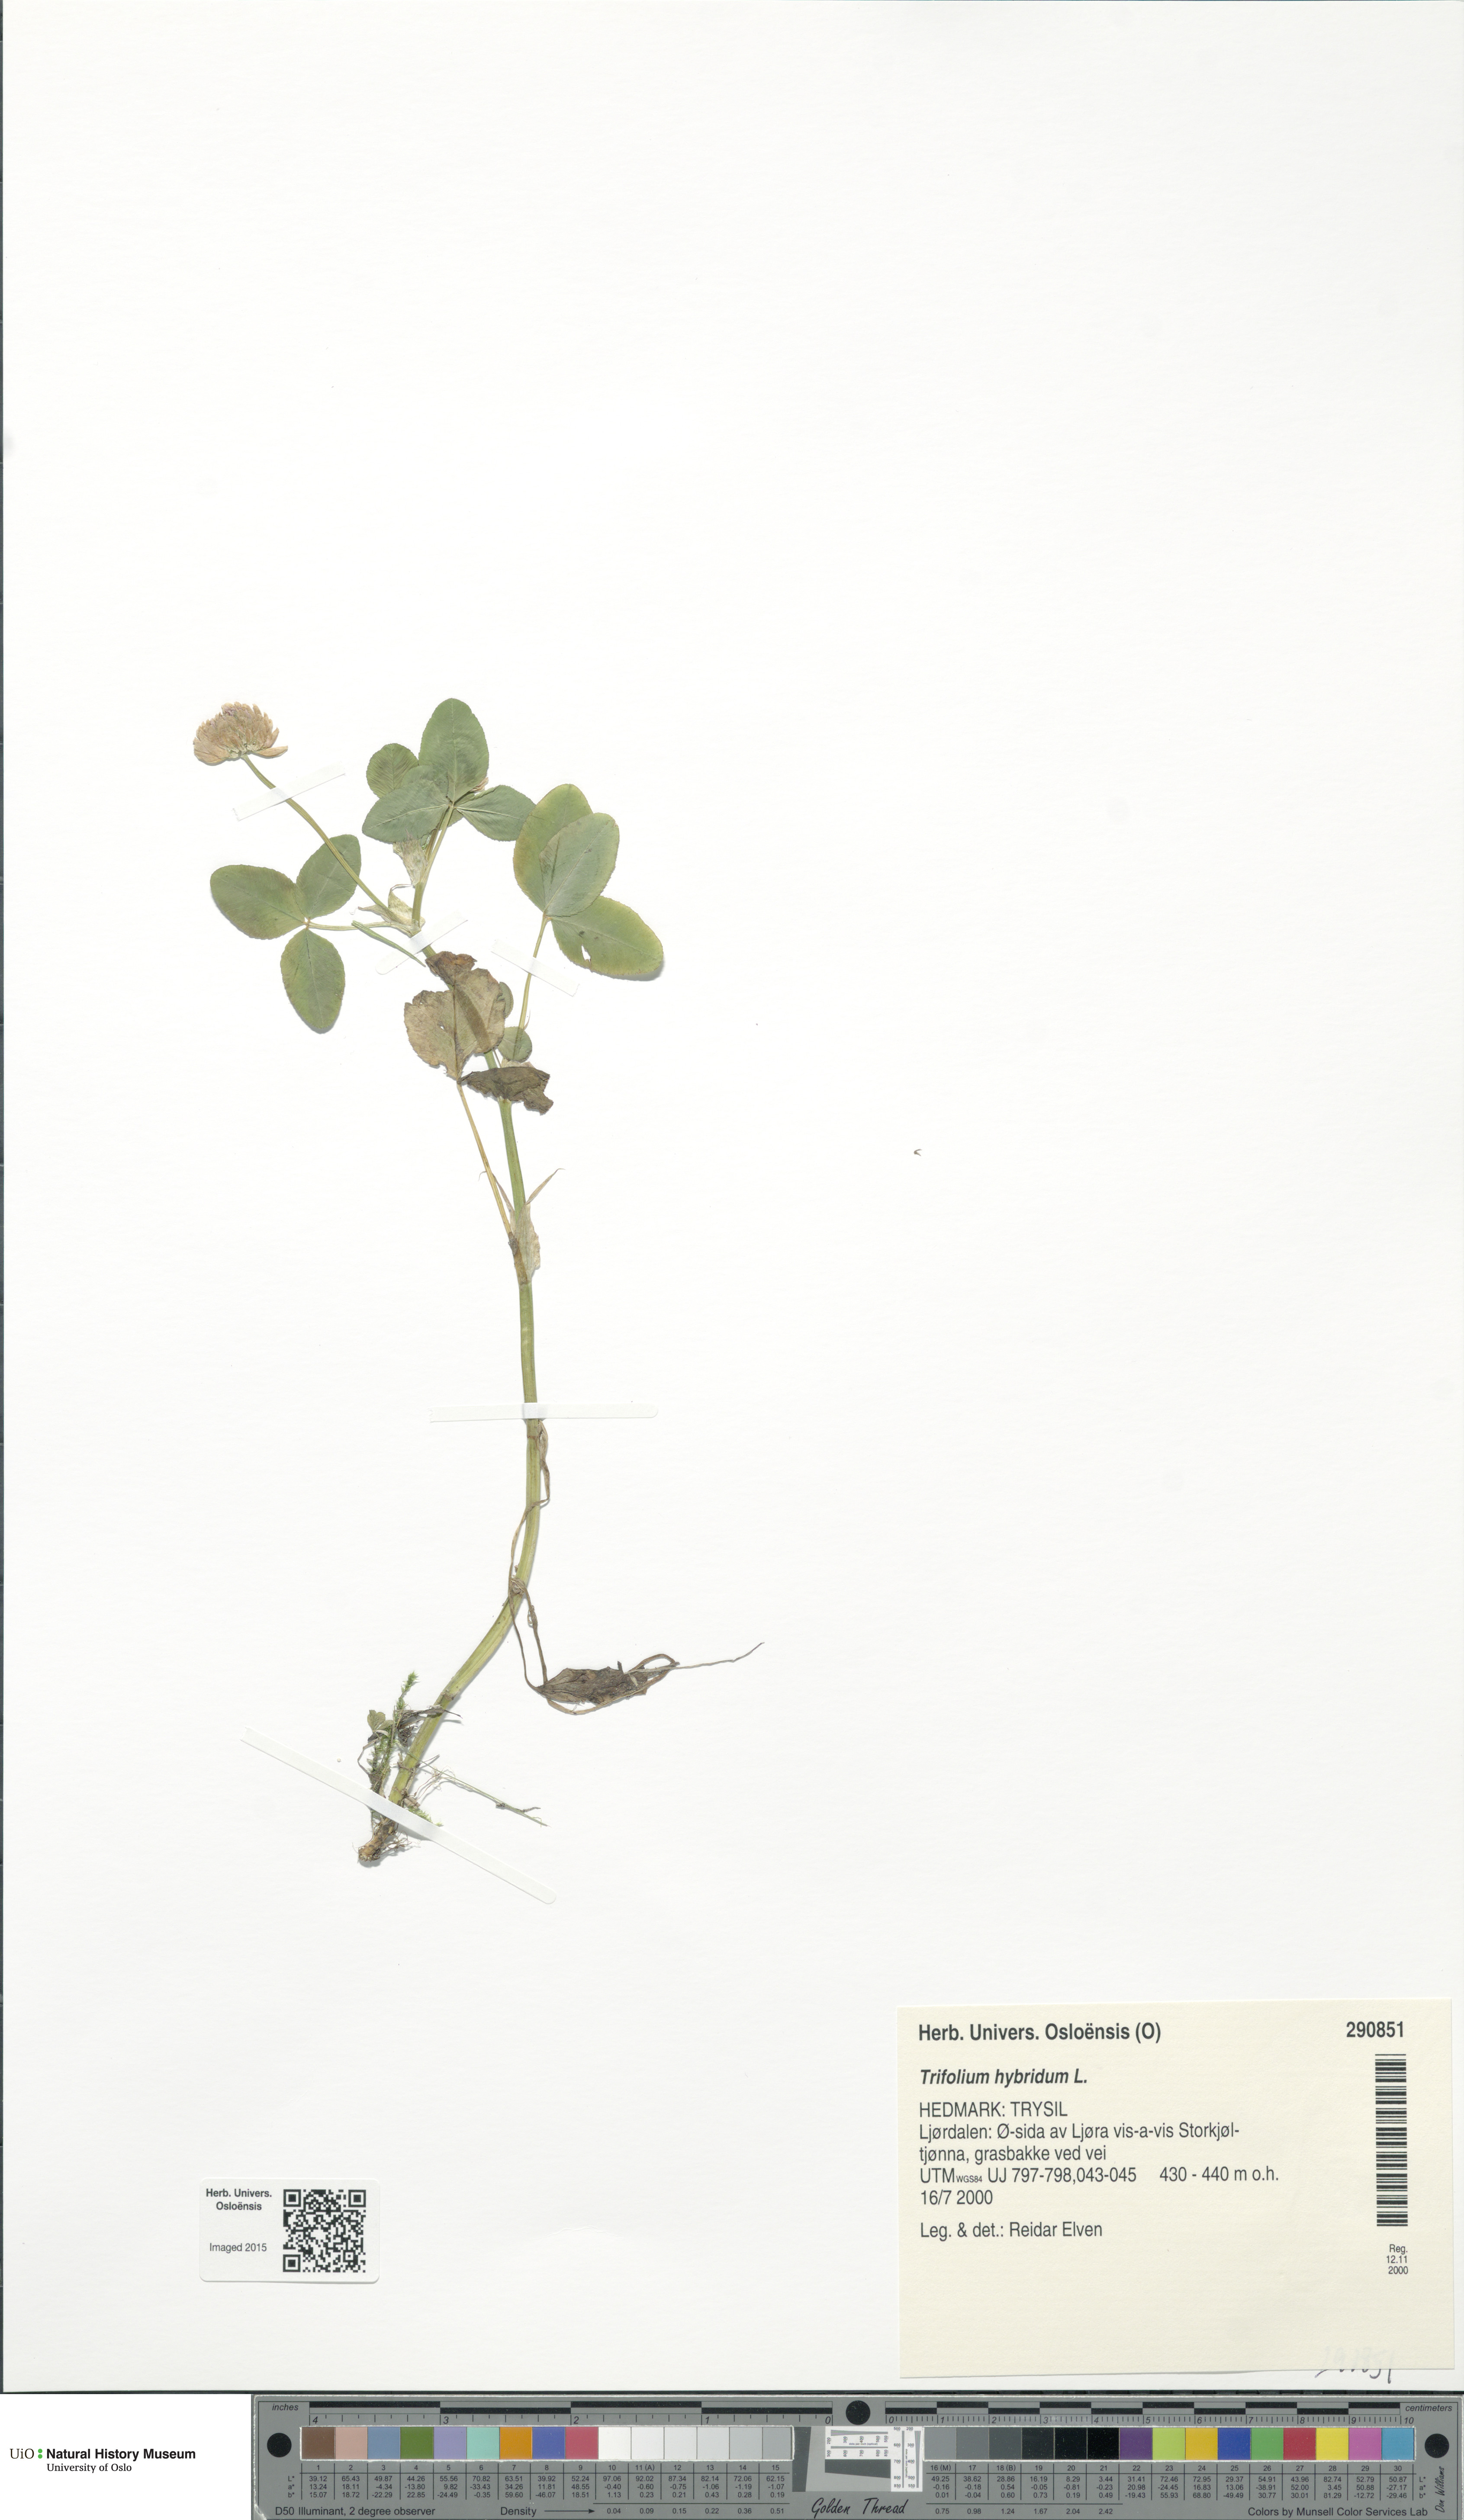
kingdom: Plantae
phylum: Tracheophyta
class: Magnoliopsida
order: Fabales
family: Fabaceae
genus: Trifolium
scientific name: Trifolium hybridum
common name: Alsike clover
